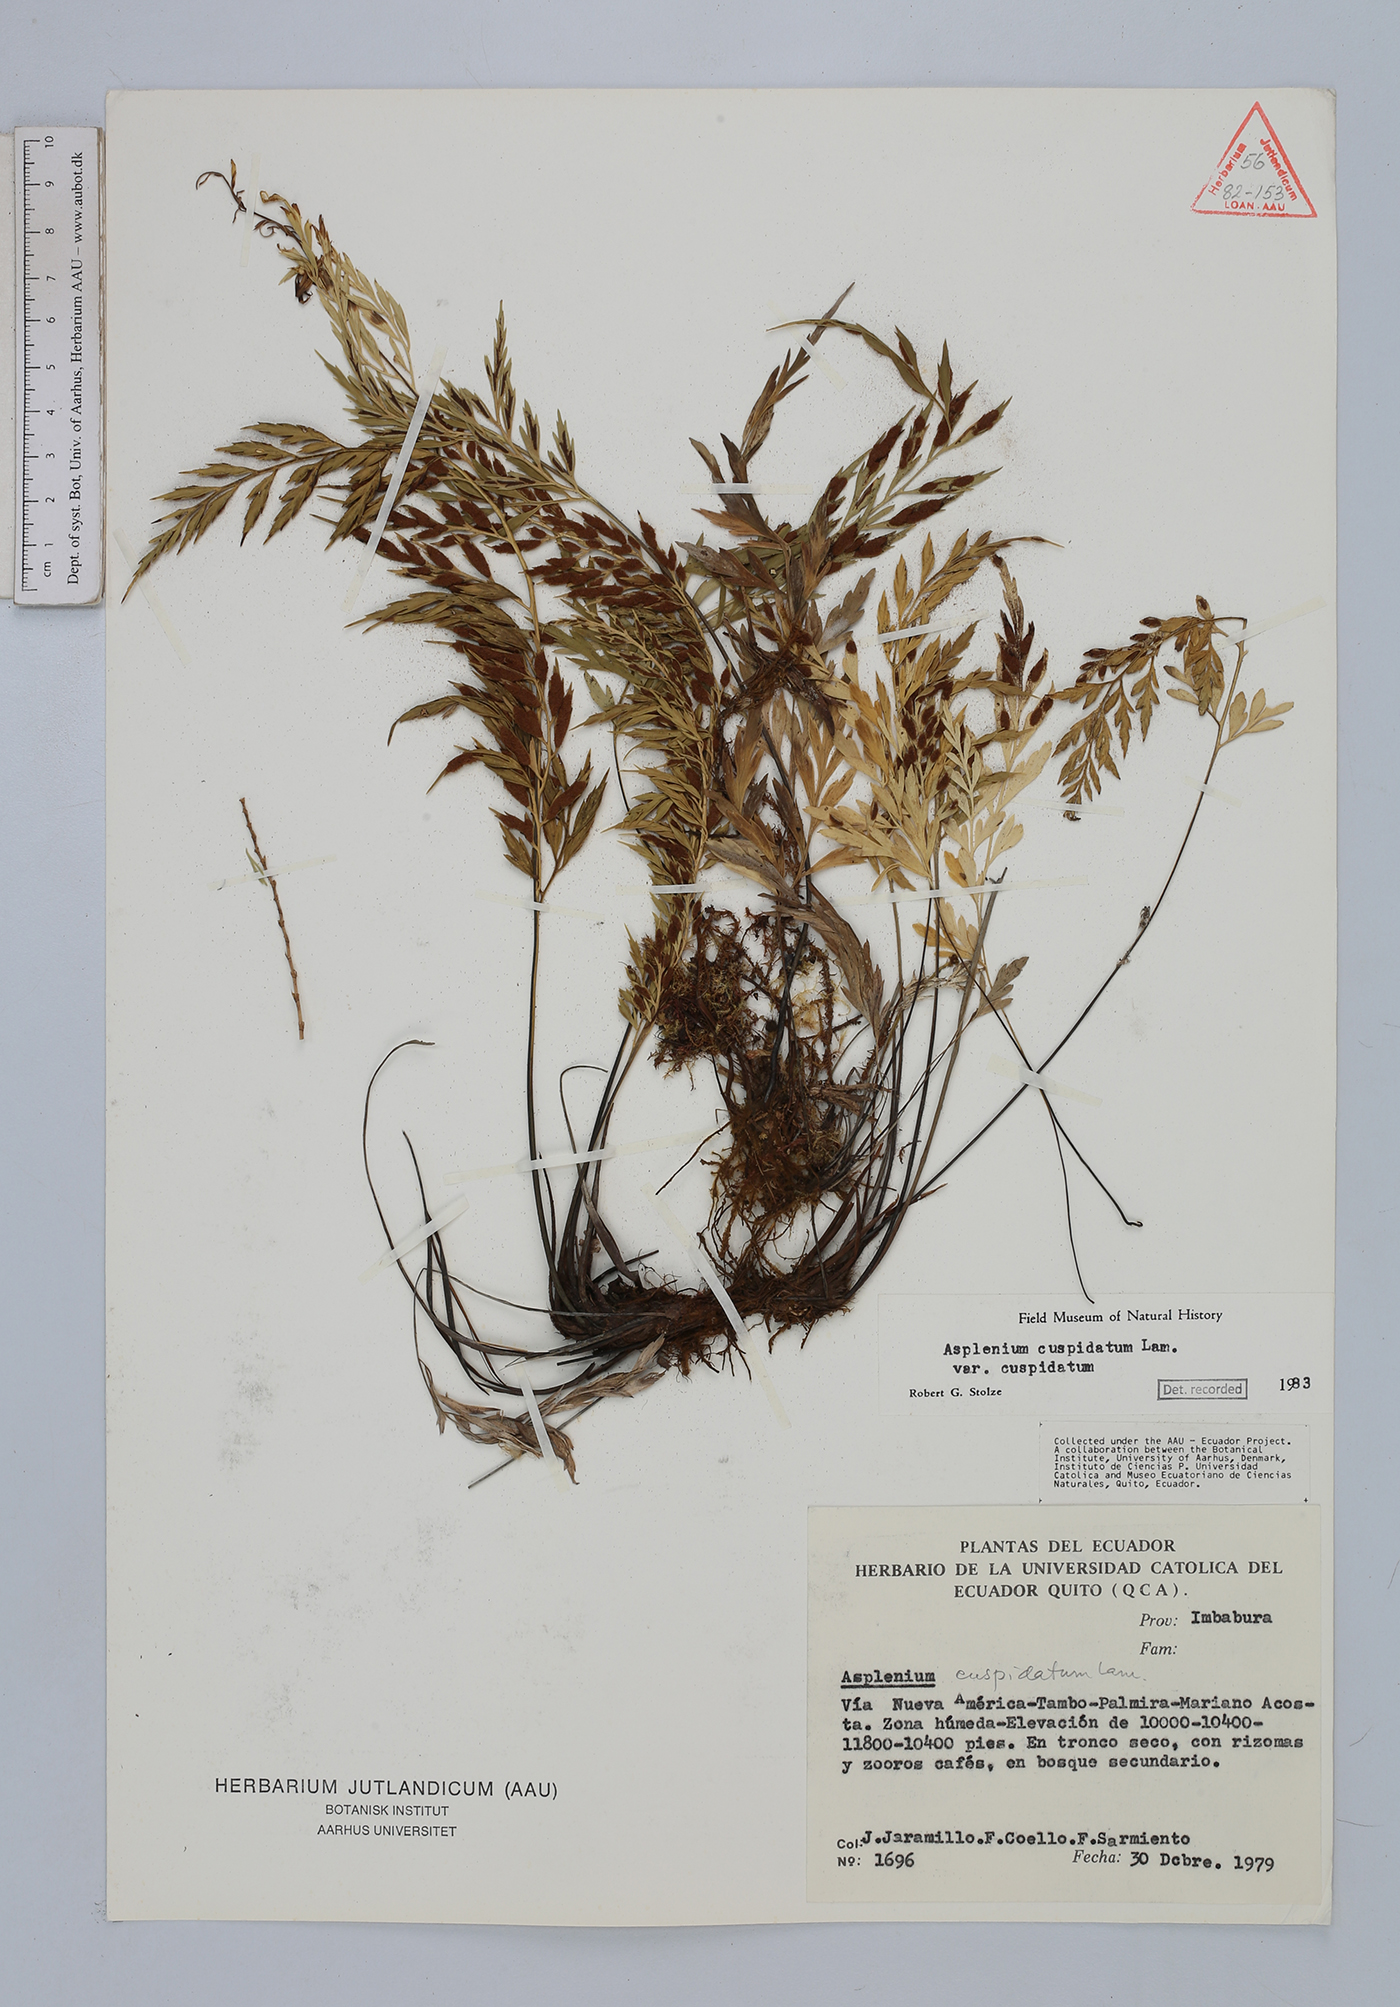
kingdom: Plantae
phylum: Tracheophyta
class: Polypodiopsida
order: Polypodiales
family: Aspleniaceae
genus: Asplenium
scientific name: Asplenium cuspidatum
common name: Eared spleenwort
